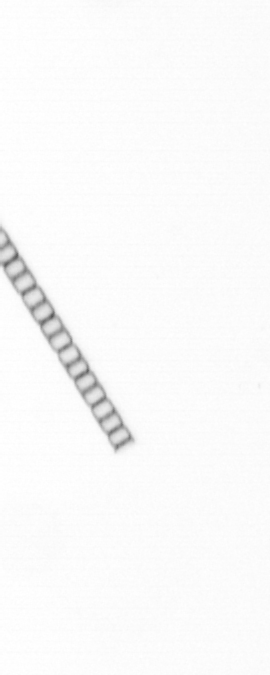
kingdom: Chromista
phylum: Ochrophyta
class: Bacillariophyceae
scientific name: Bacillariophyceae
